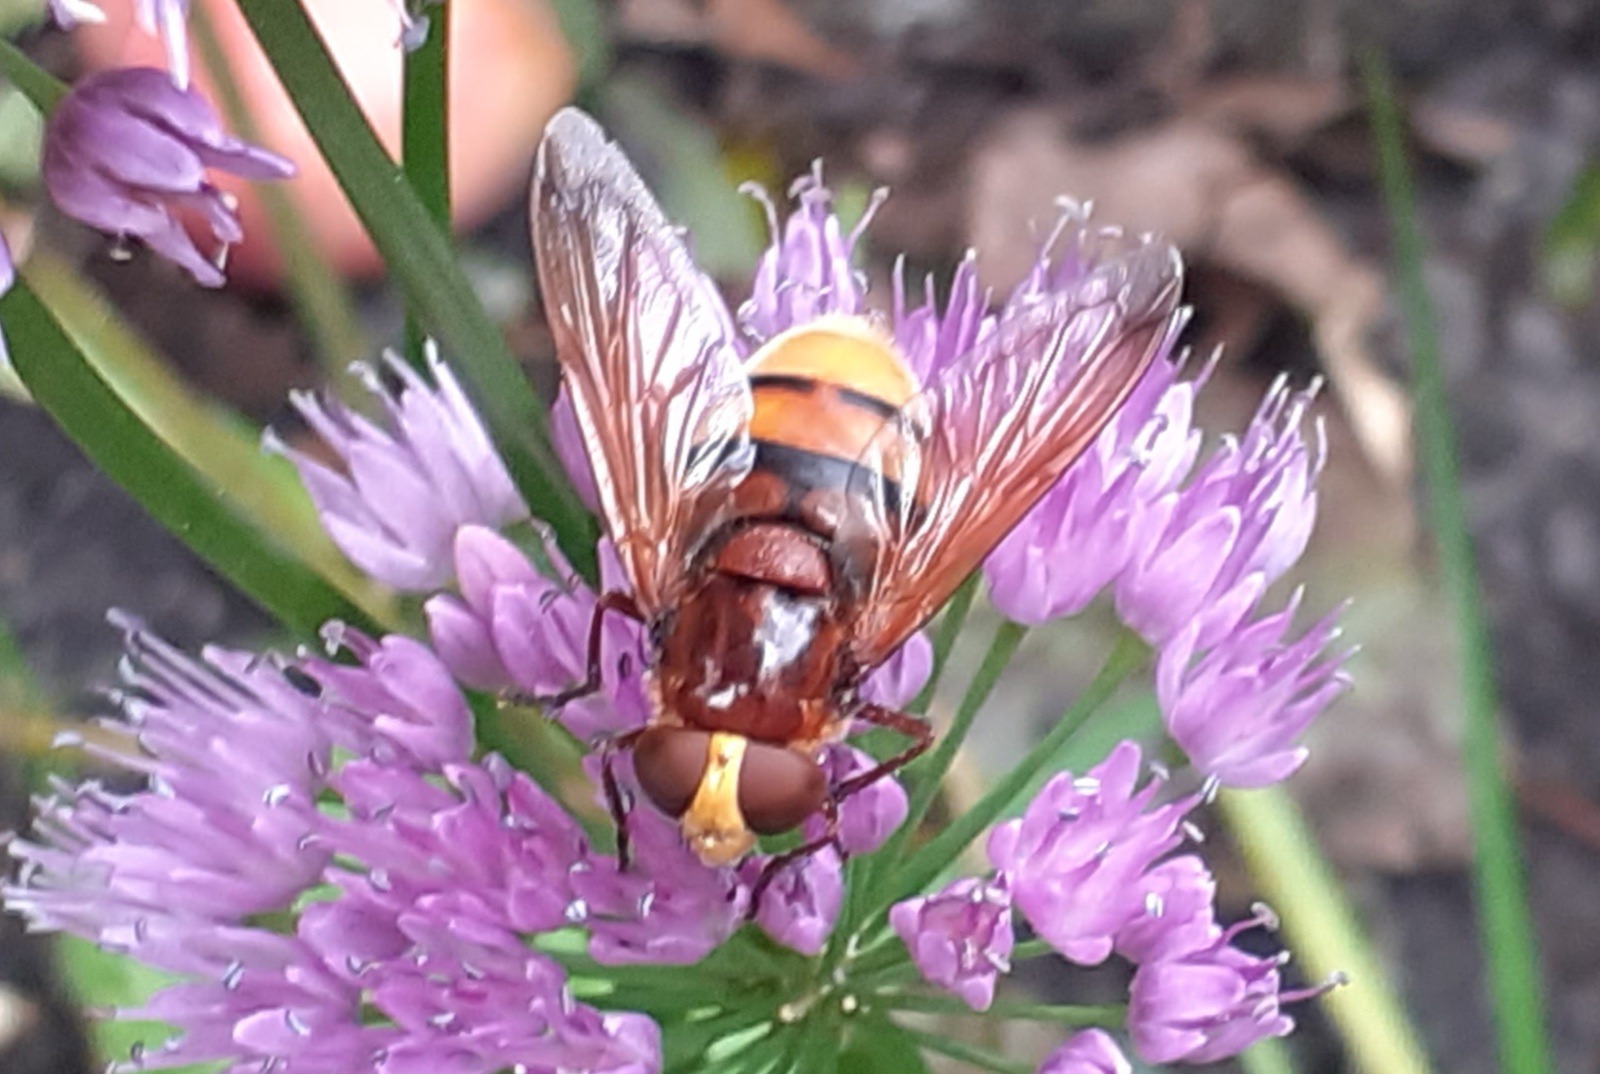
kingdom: Animalia
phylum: Arthropoda
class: Insecta
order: Diptera
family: Syrphidae
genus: Volucella
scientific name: Volucella zonaria
